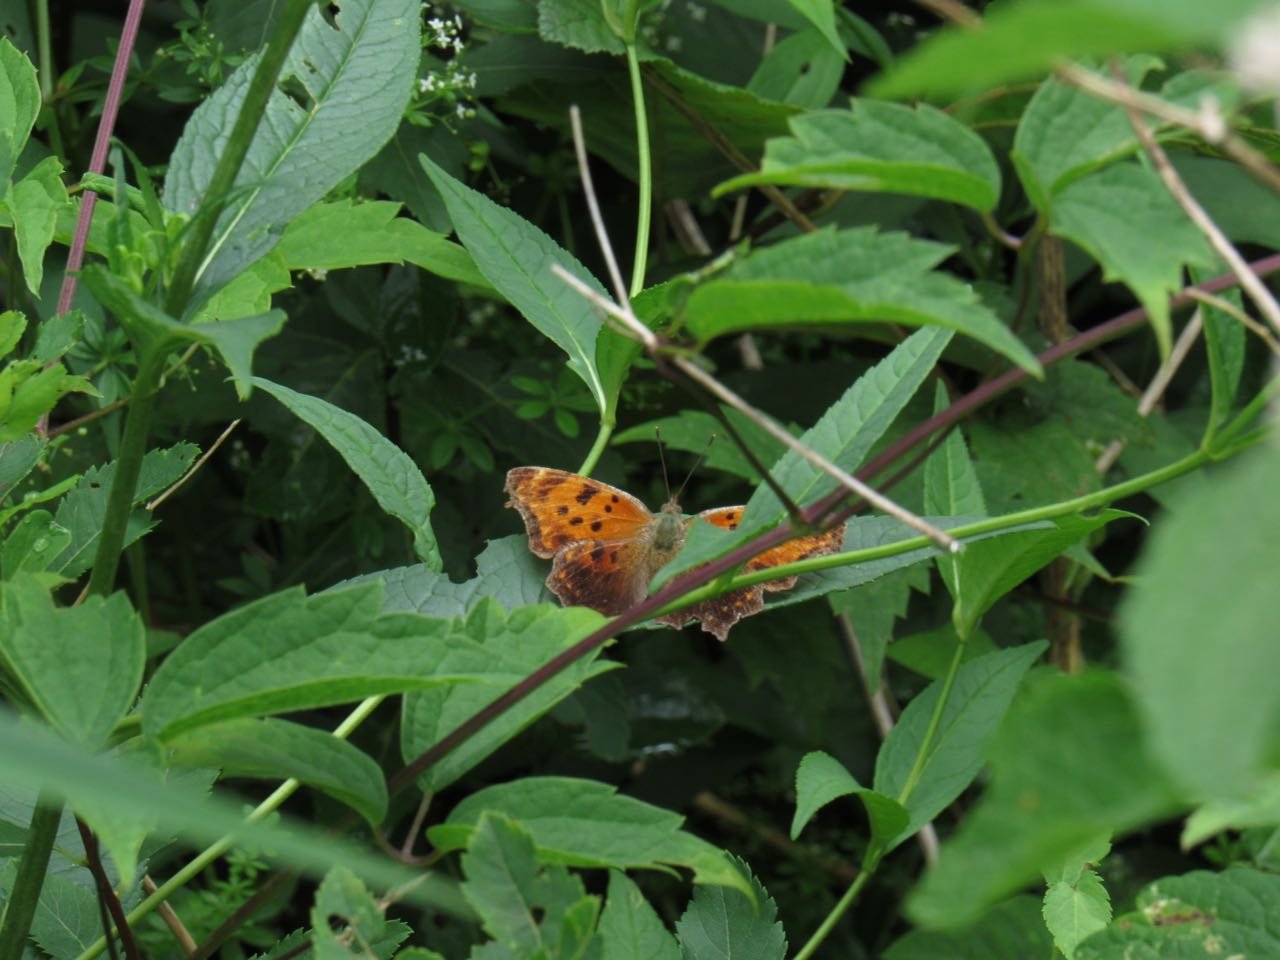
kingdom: Animalia
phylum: Arthropoda
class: Insecta
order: Lepidoptera
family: Nymphalidae
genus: Polygonia
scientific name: Polygonia comma
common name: Eastern Comma
